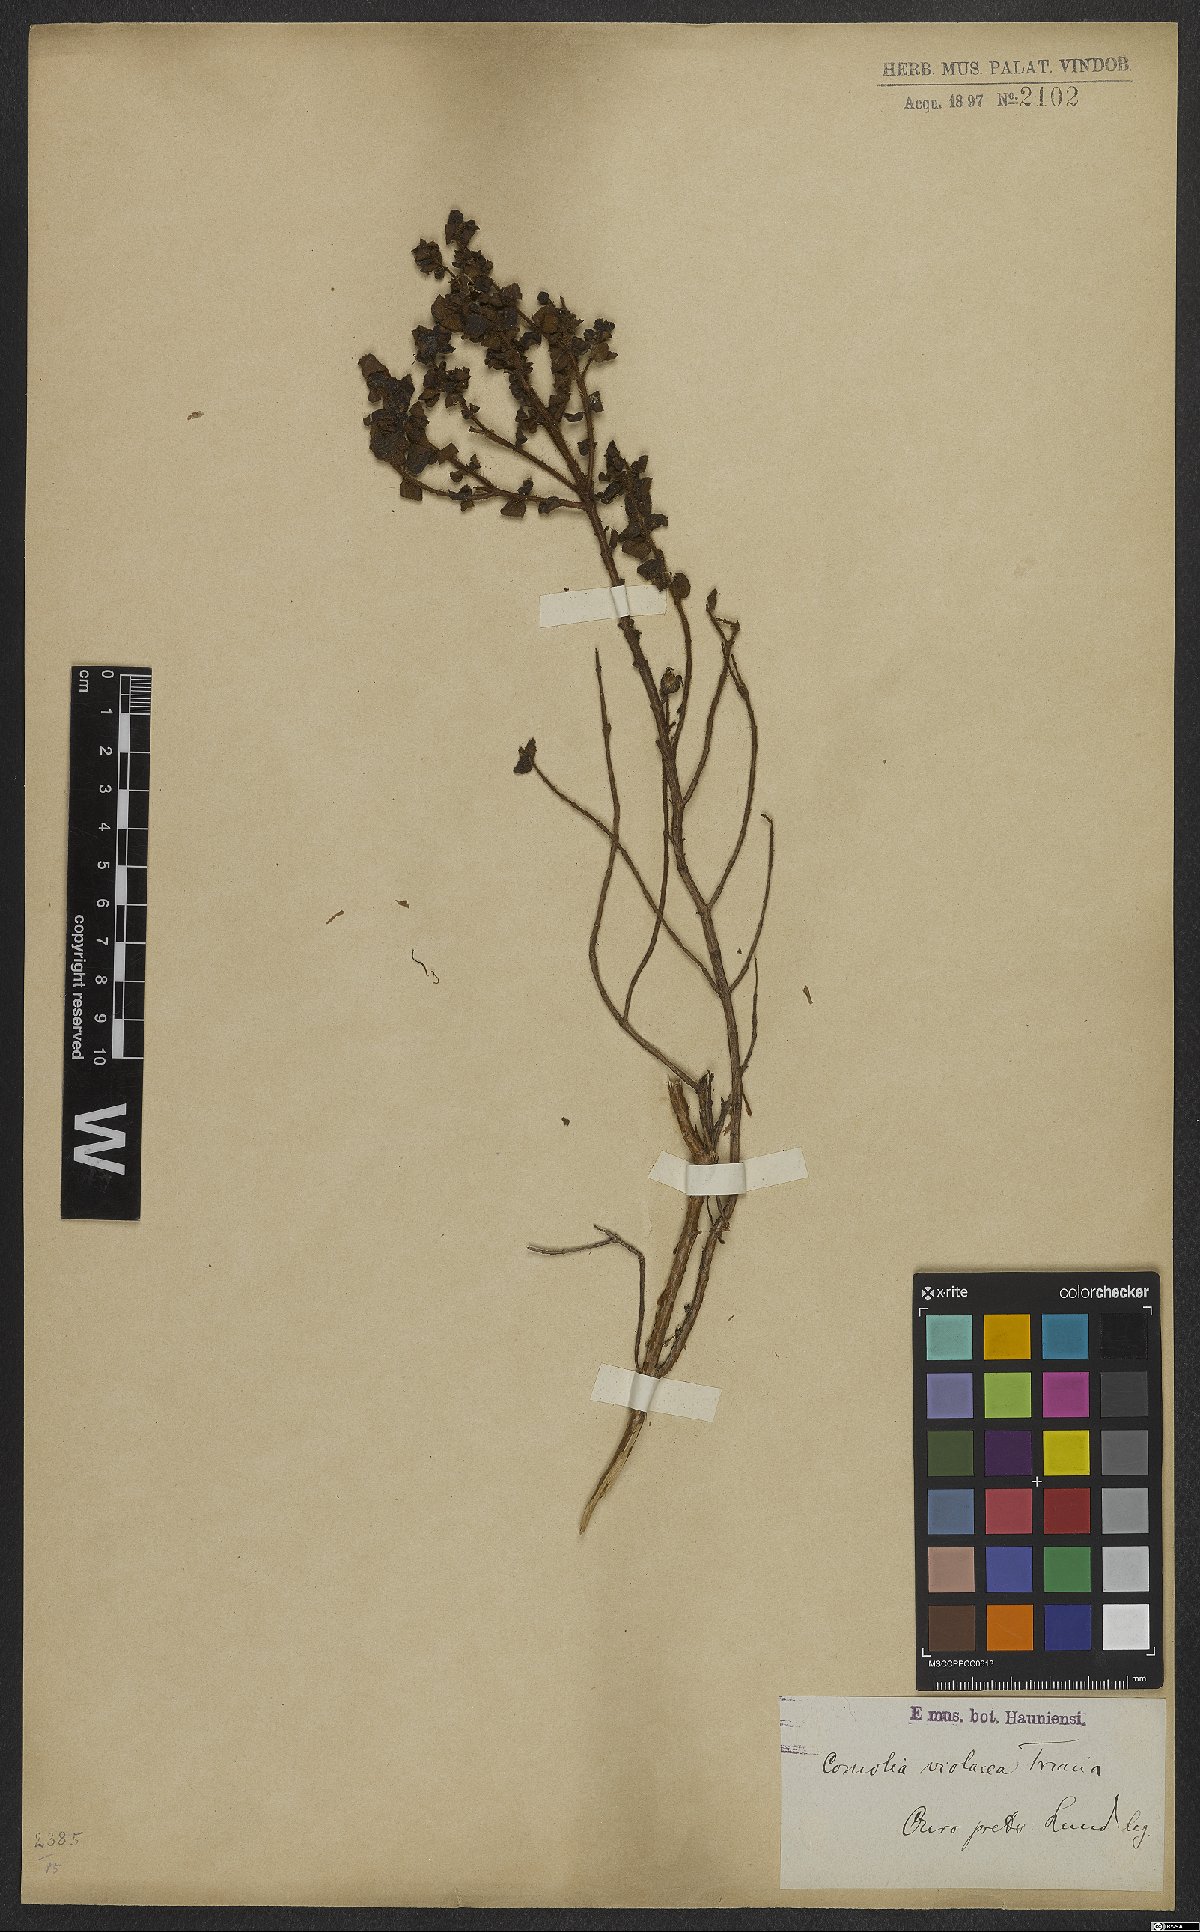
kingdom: Plantae
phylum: Tracheophyta
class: Magnoliopsida
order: Myrtales
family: Melastomataceae
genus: Fritzschia
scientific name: Fritzschia sessilis
